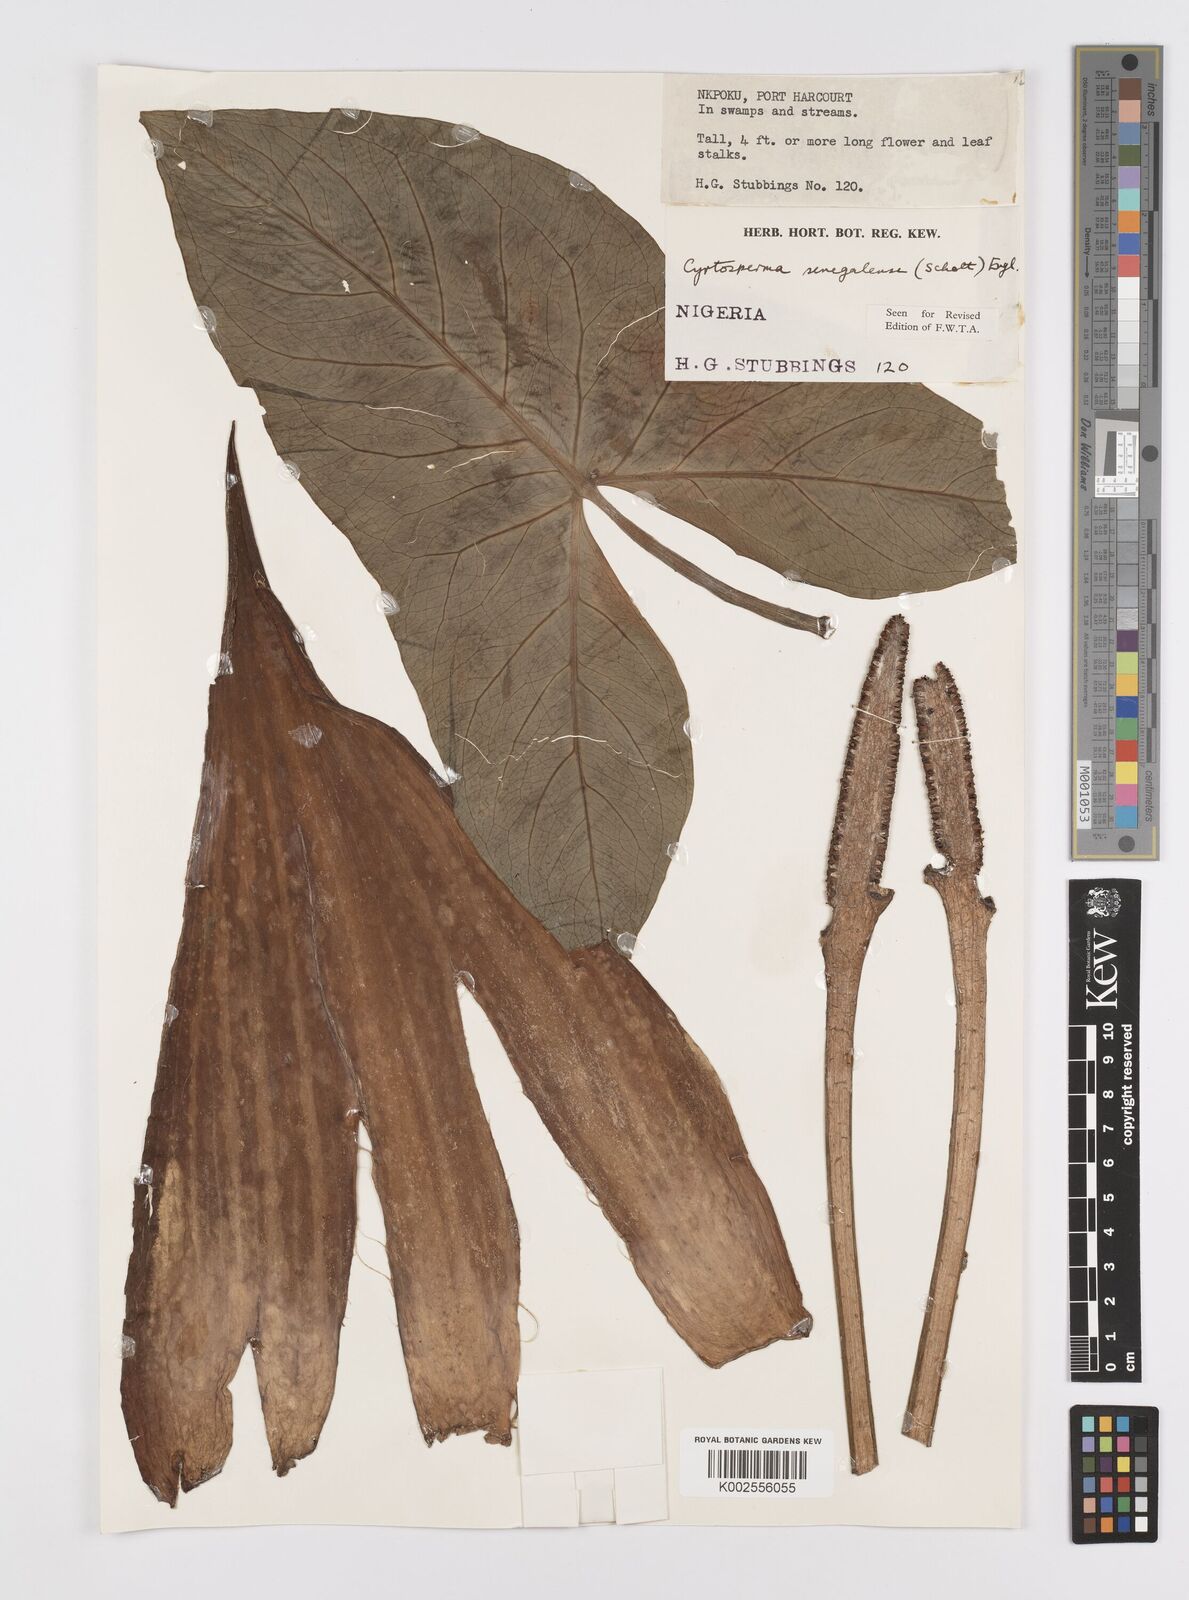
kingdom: Plantae
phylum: Tracheophyta
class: Liliopsida
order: Alismatales
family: Araceae
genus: Lasimorpha
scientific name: Lasimorpha senegalensis
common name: Swamp arum
